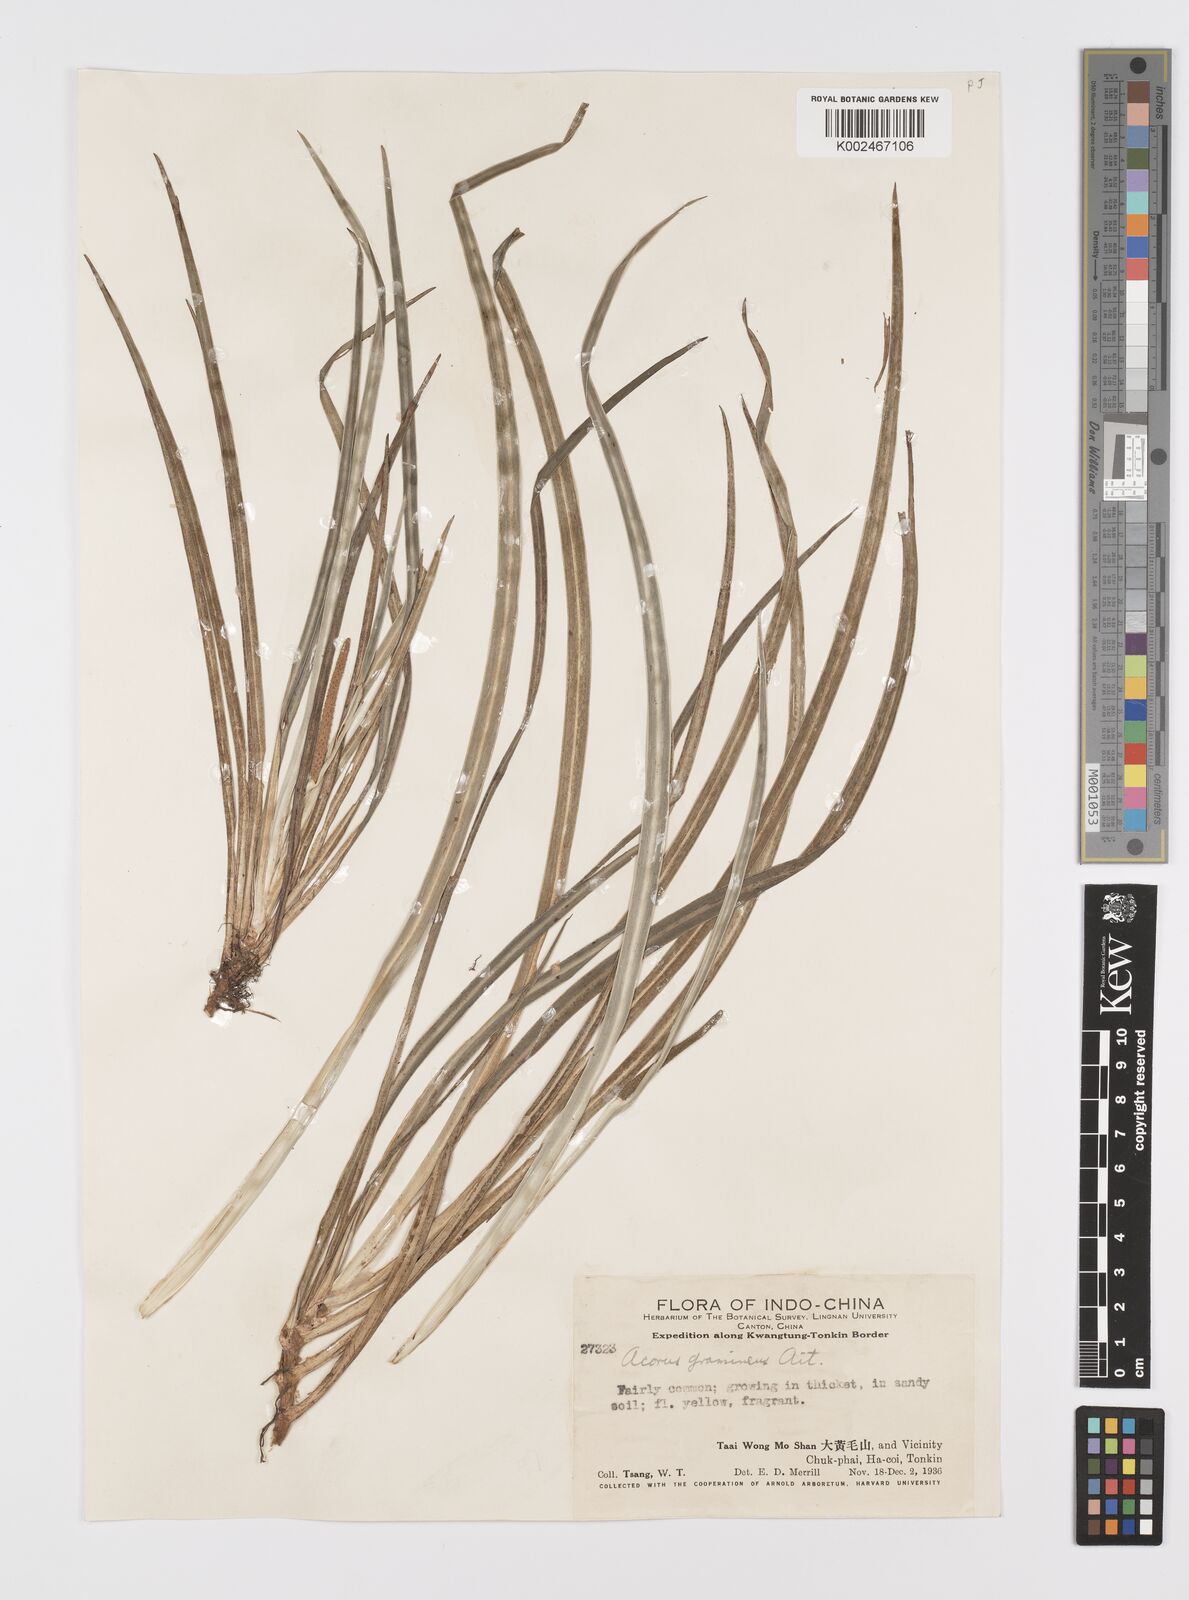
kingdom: Plantae
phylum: Tracheophyta
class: Liliopsida
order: Acorales
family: Acoraceae
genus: Acorus
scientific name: Acorus gramineus
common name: Slender sweet-flag
